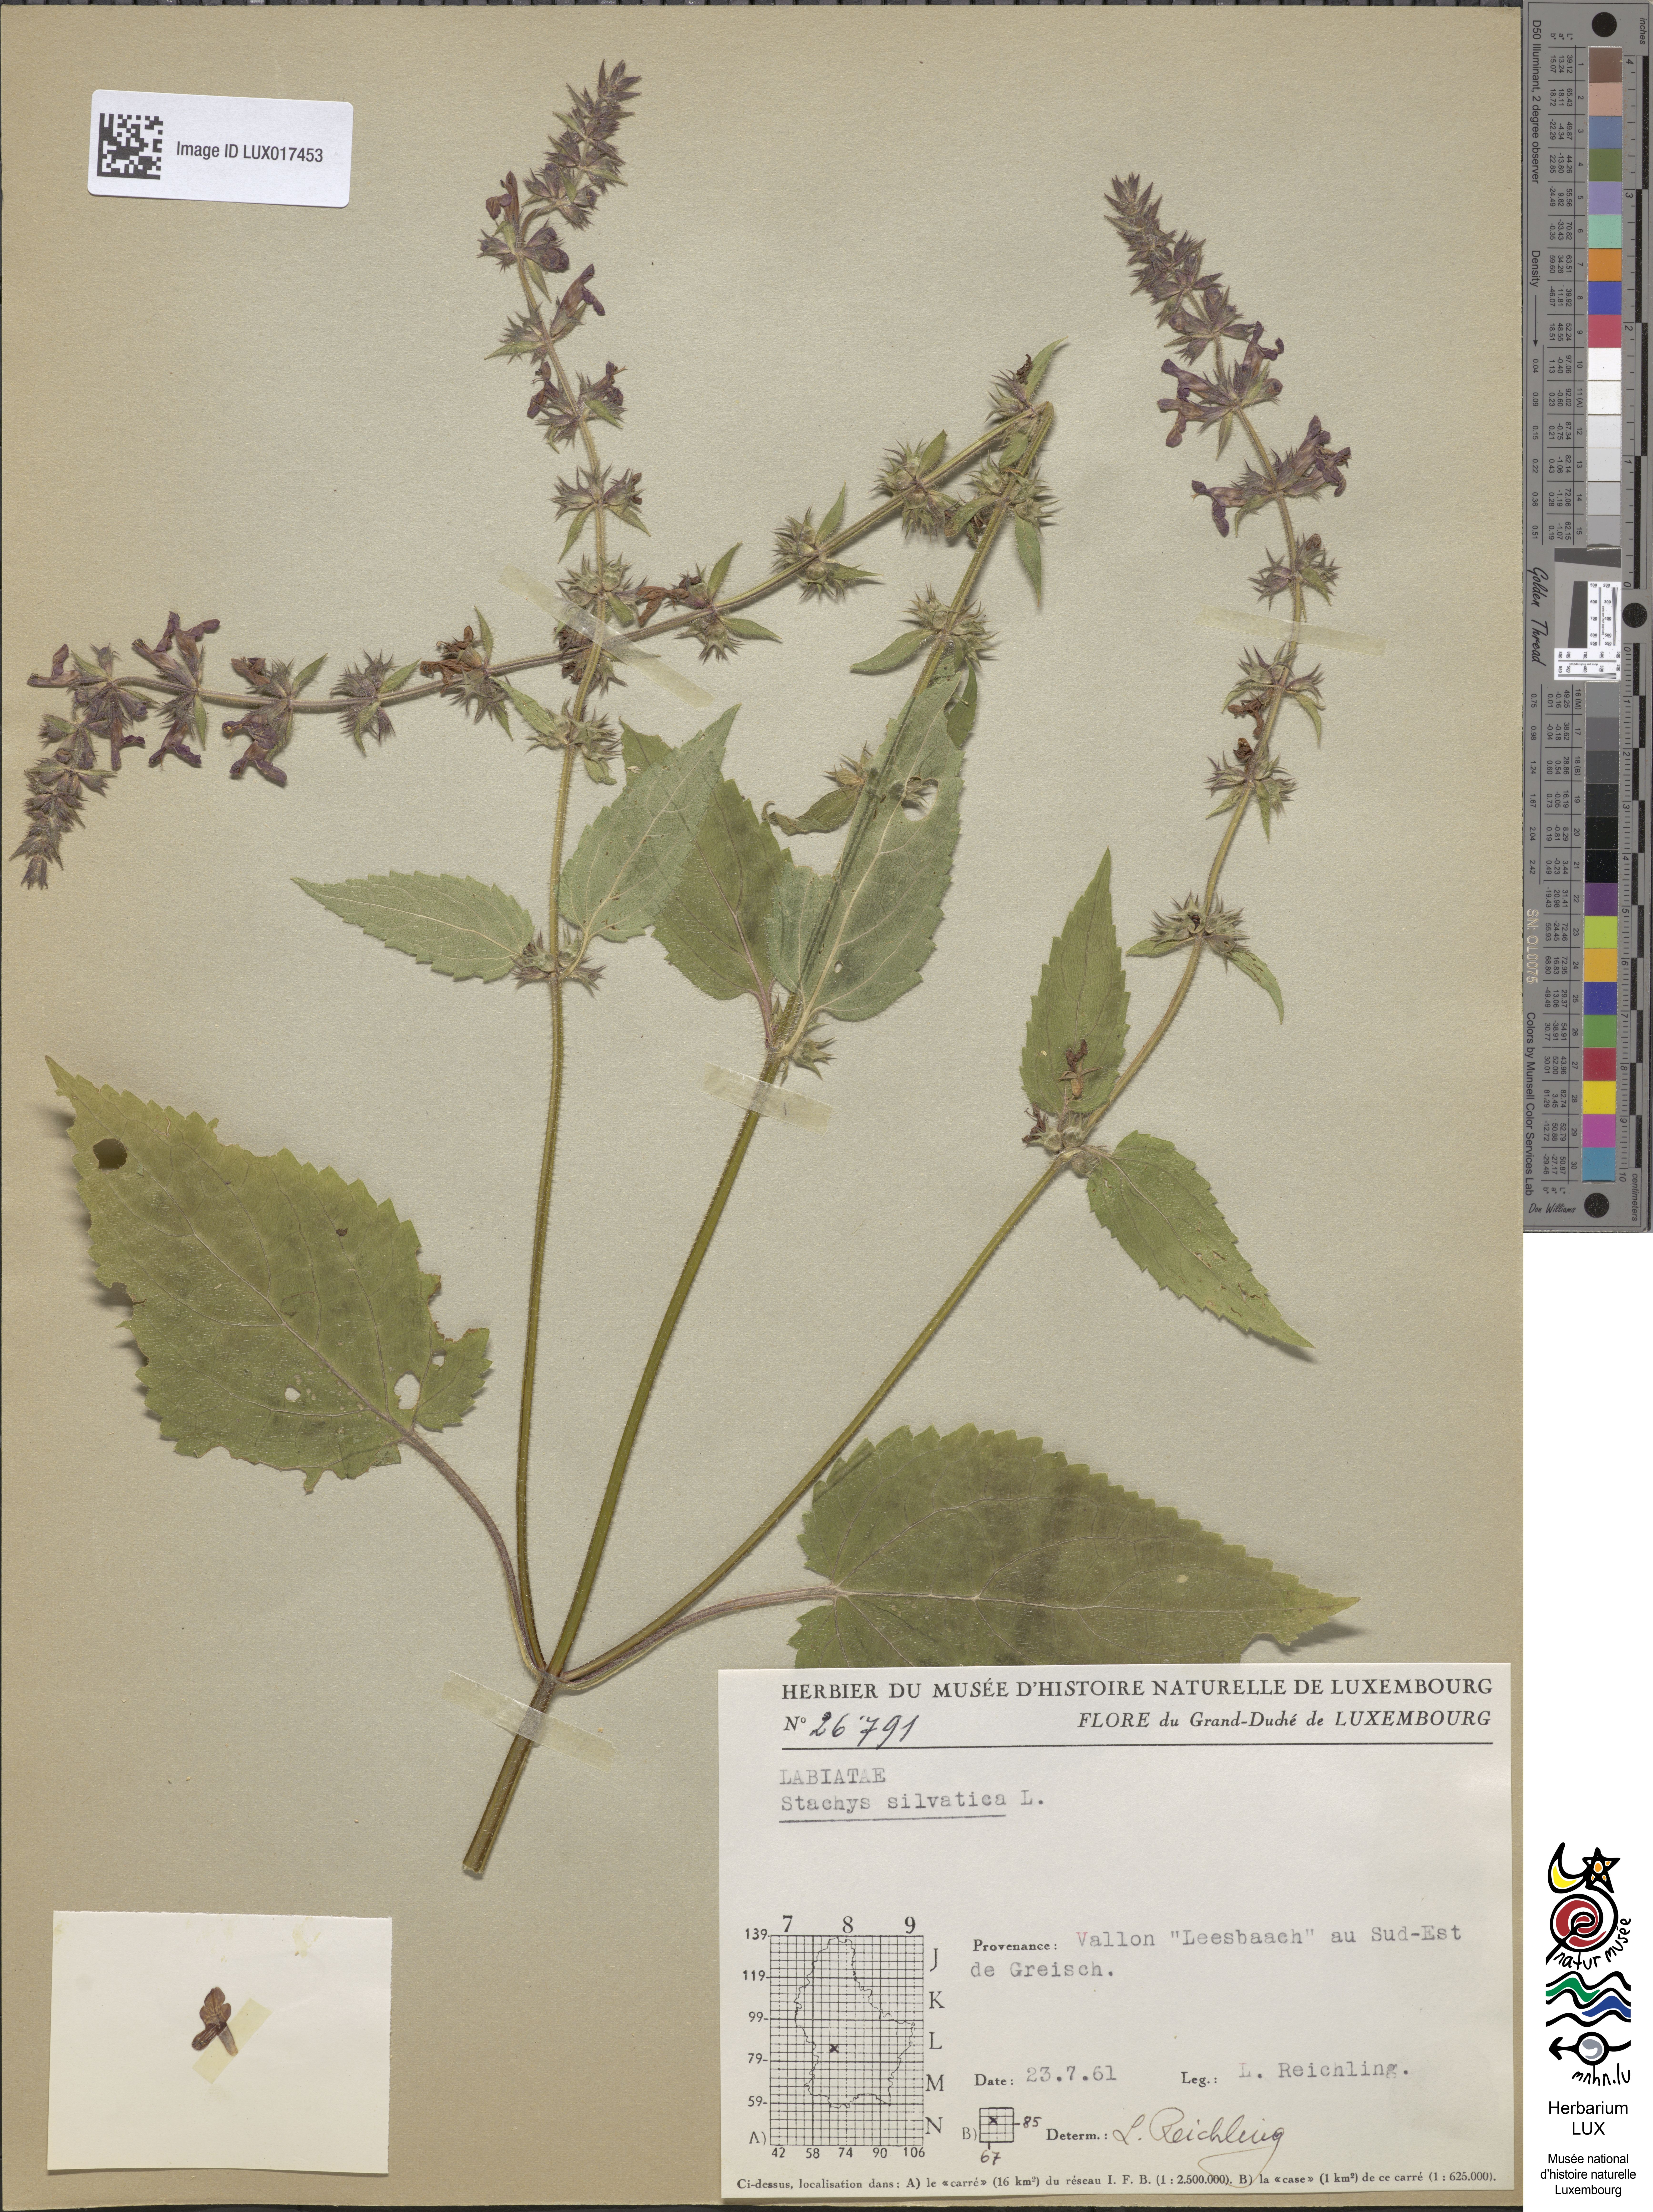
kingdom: Plantae
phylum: Tracheophyta
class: Magnoliopsida
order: Lamiales
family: Lamiaceae
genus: Stachys
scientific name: Stachys sylvatica
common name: Hedge woundwort
